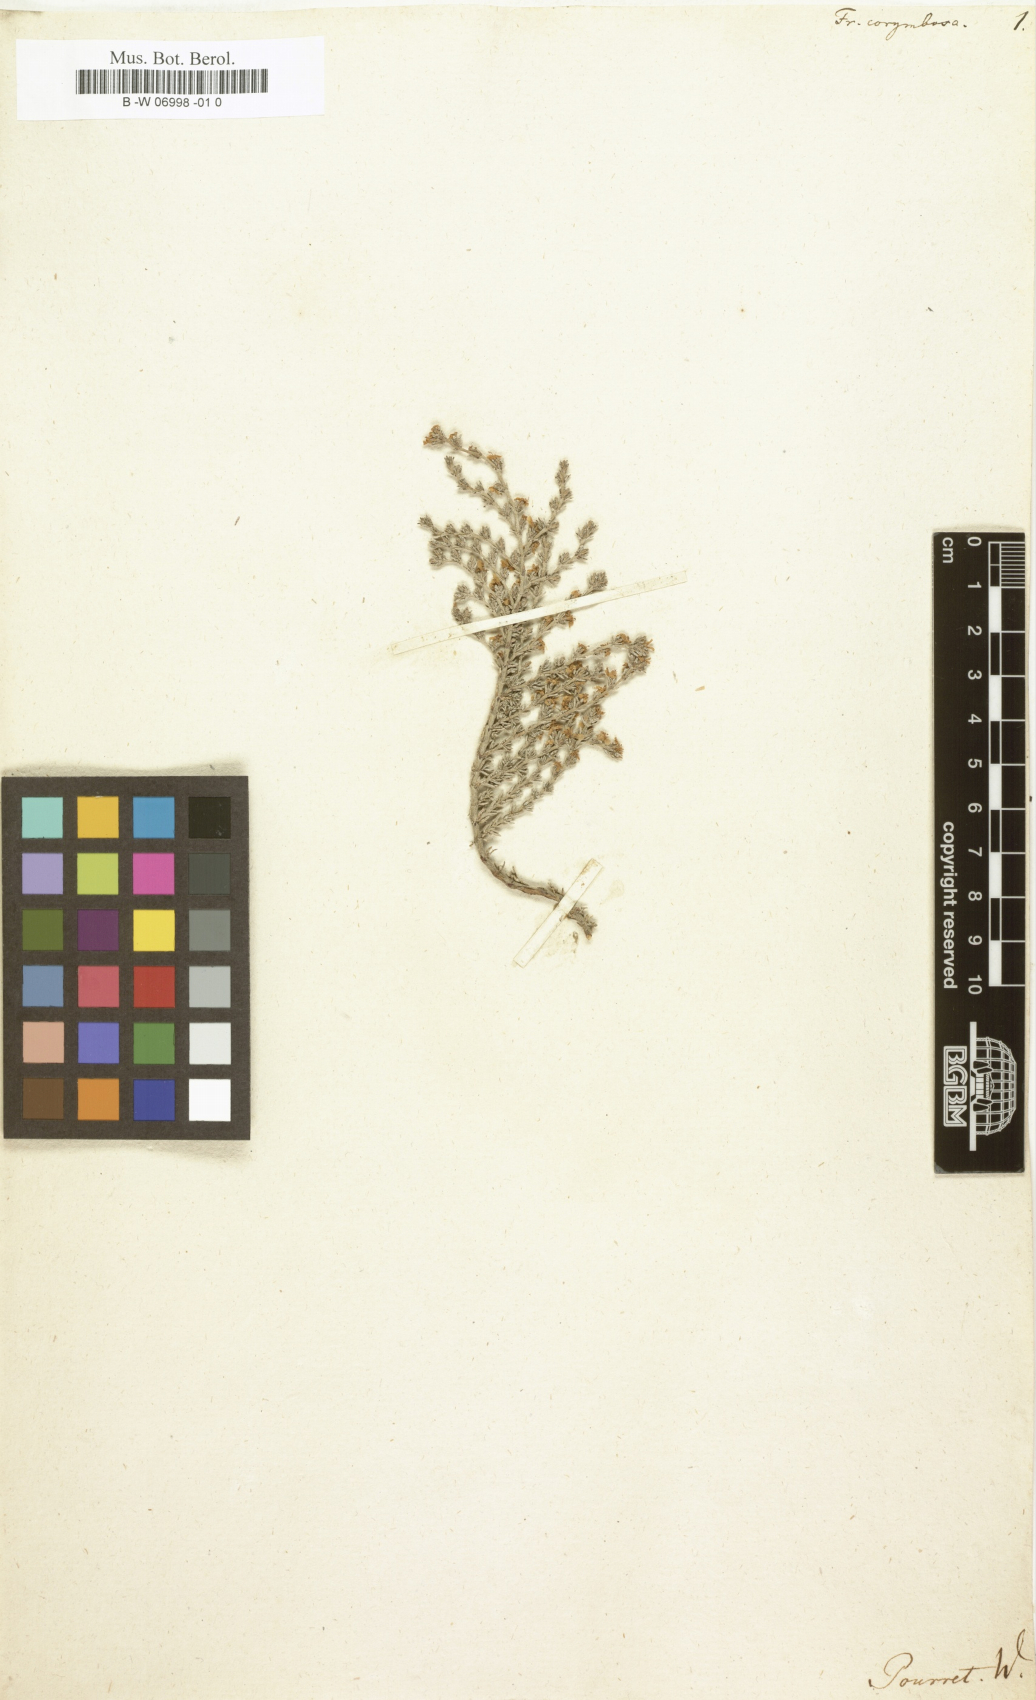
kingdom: Plantae
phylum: Tracheophyta
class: Magnoliopsida
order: Caryophyllales
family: Frankeniaceae
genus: Frankenia
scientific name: Frankenia corymbosa
